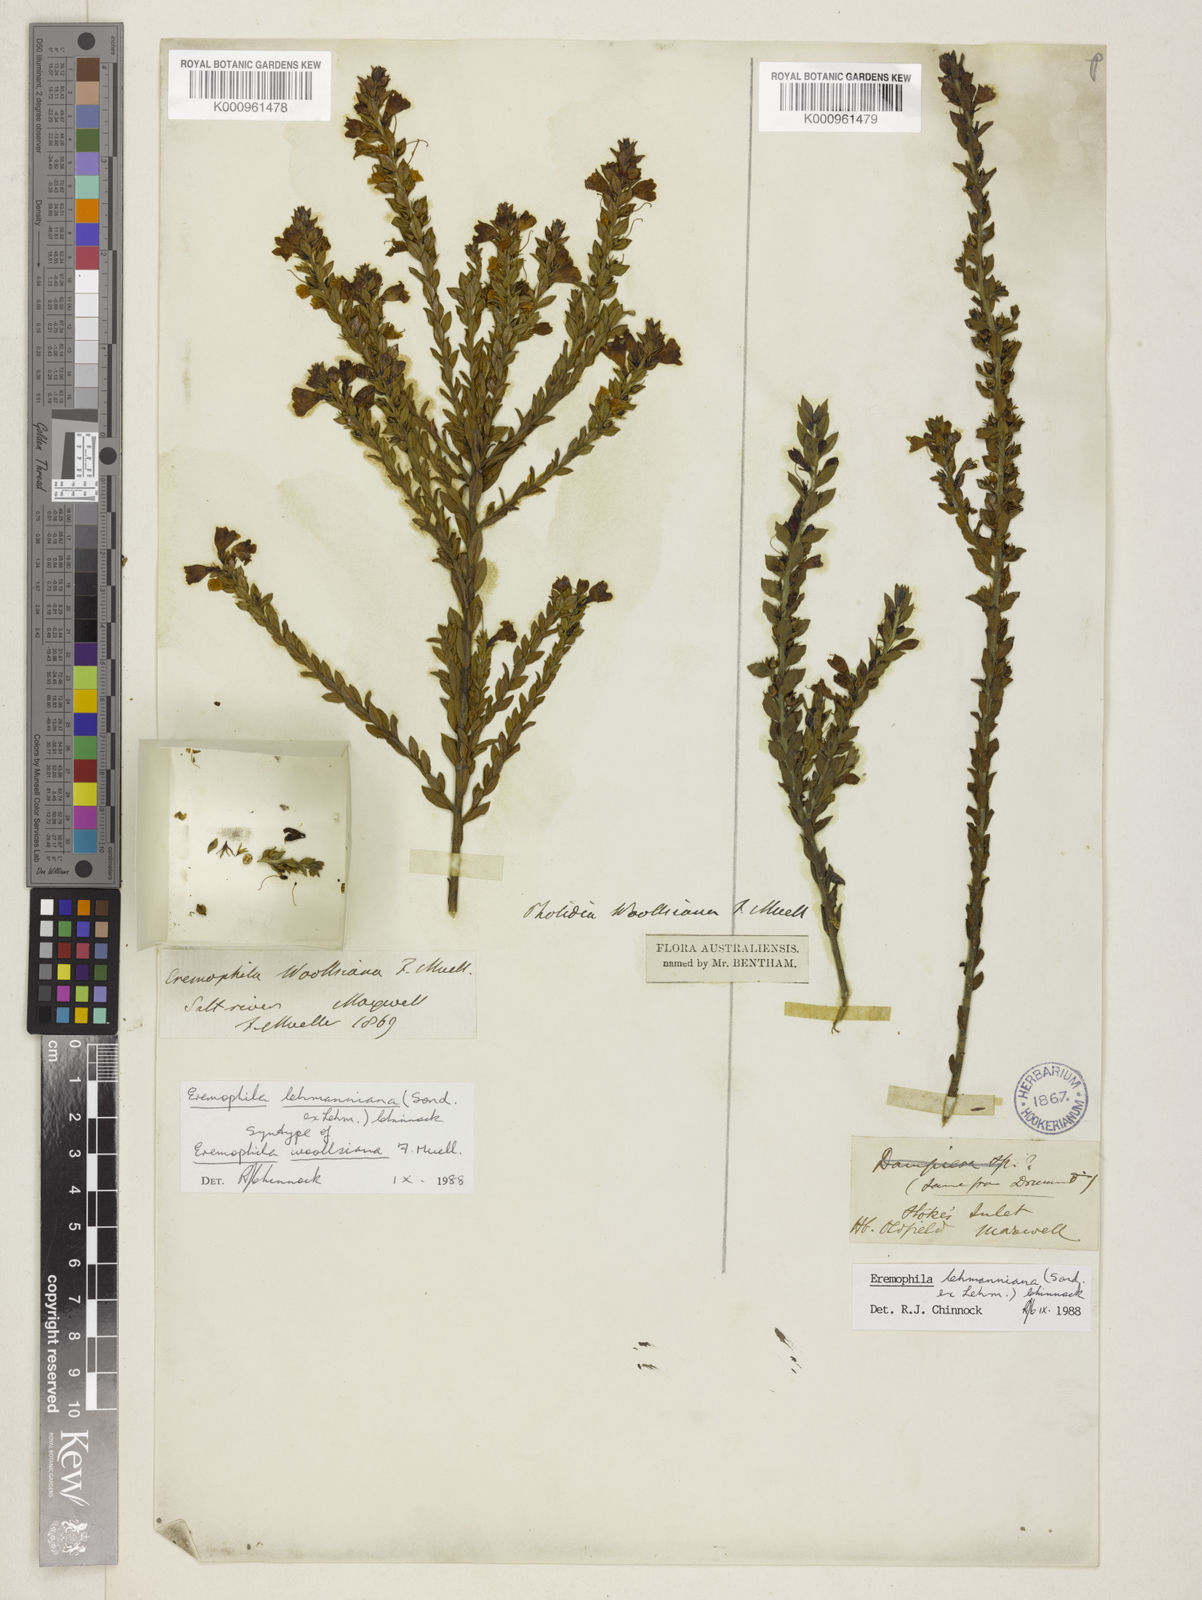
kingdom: Plantae
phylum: Tracheophyta
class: Magnoliopsida
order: Lamiales
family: Scrophulariaceae
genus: Eremophila
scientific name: Eremophila lehmanniana
